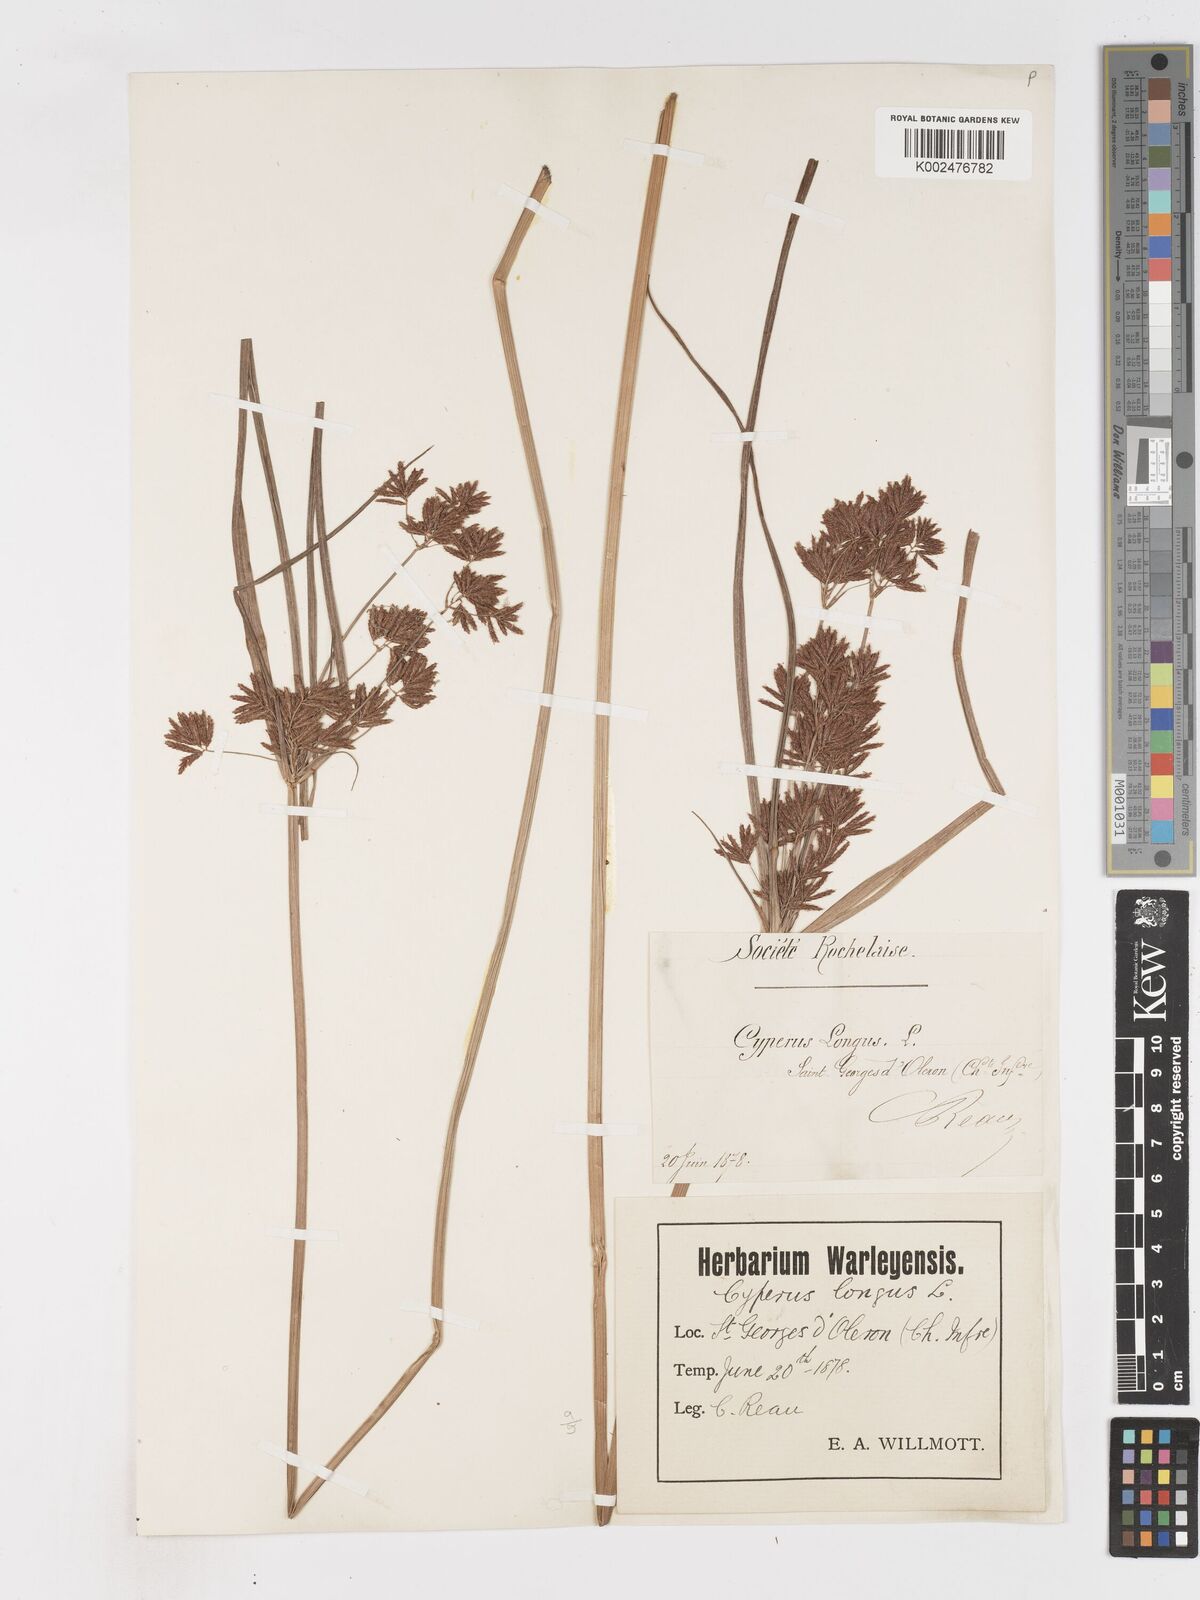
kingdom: Plantae
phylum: Tracheophyta
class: Liliopsida
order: Poales
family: Cyperaceae
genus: Cyperus
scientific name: Cyperus longus
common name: Galingale
